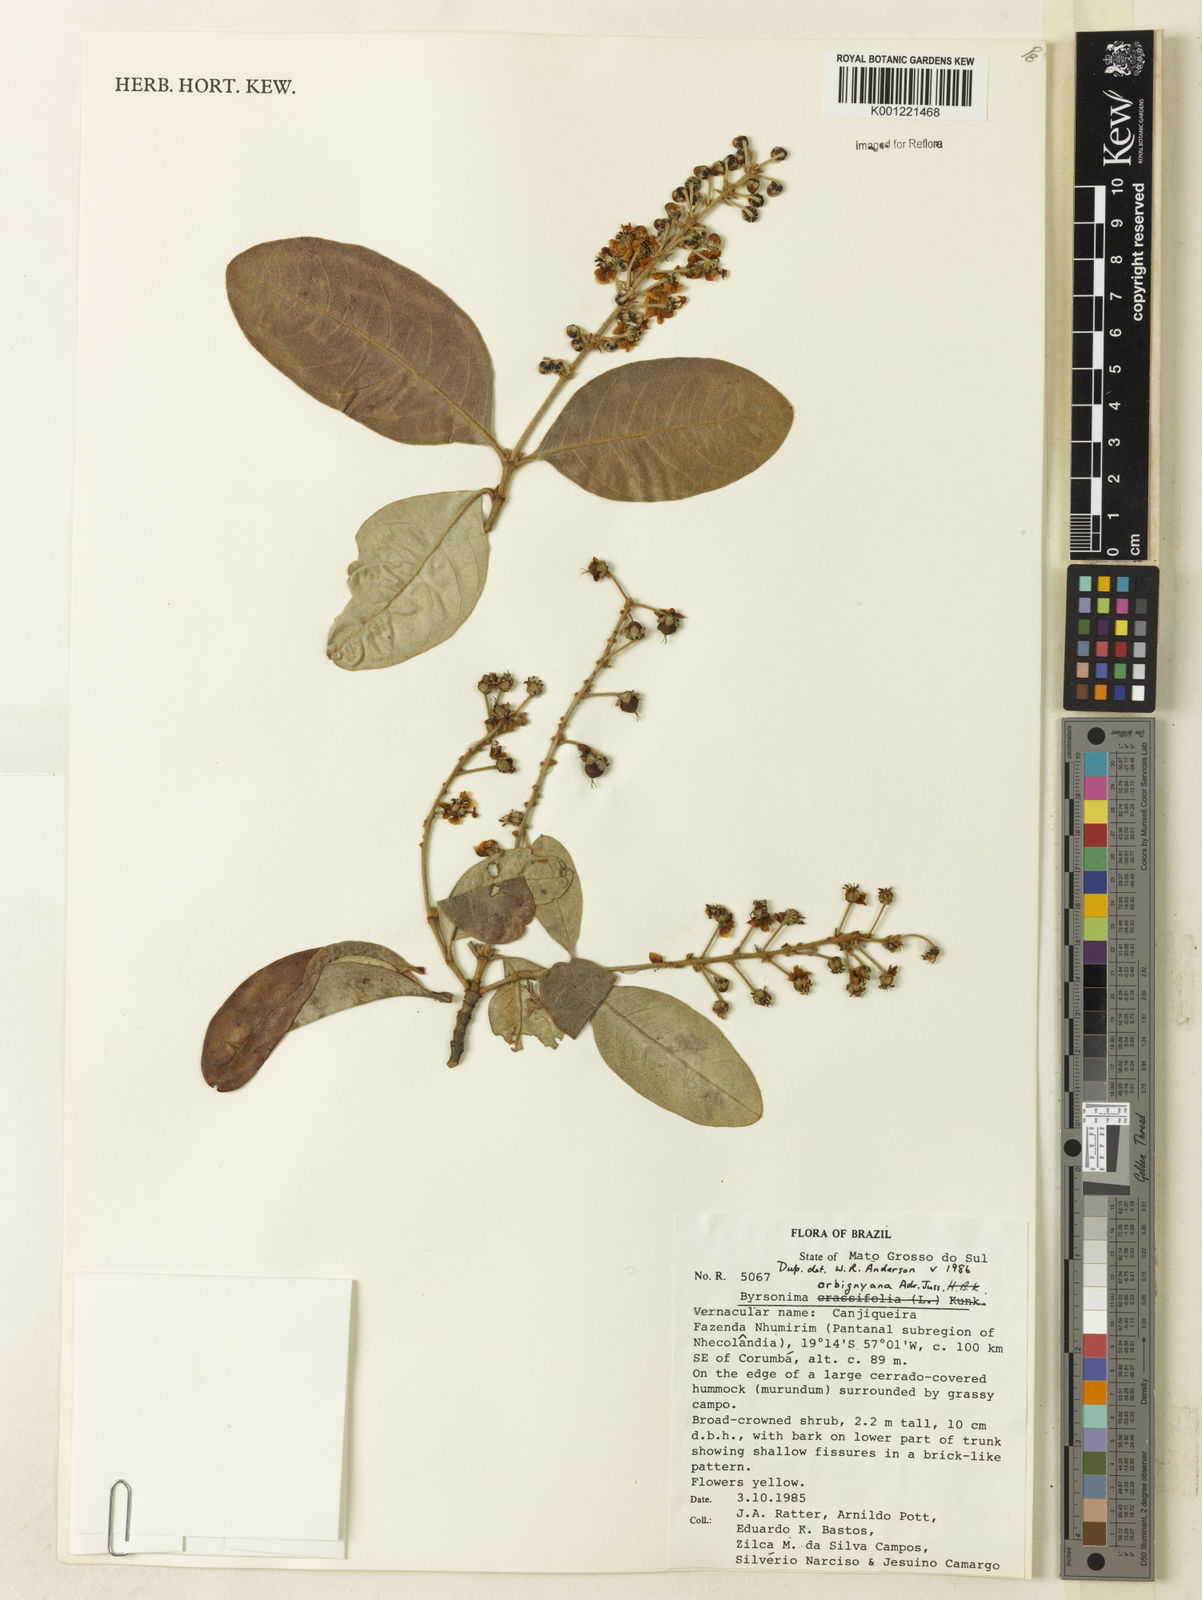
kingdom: Plantae
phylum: Tracheophyta
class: Magnoliopsida
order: Malpighiales
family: Malpighiaceae
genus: Byrsonima
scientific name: Byrsonima cydoniifolia
